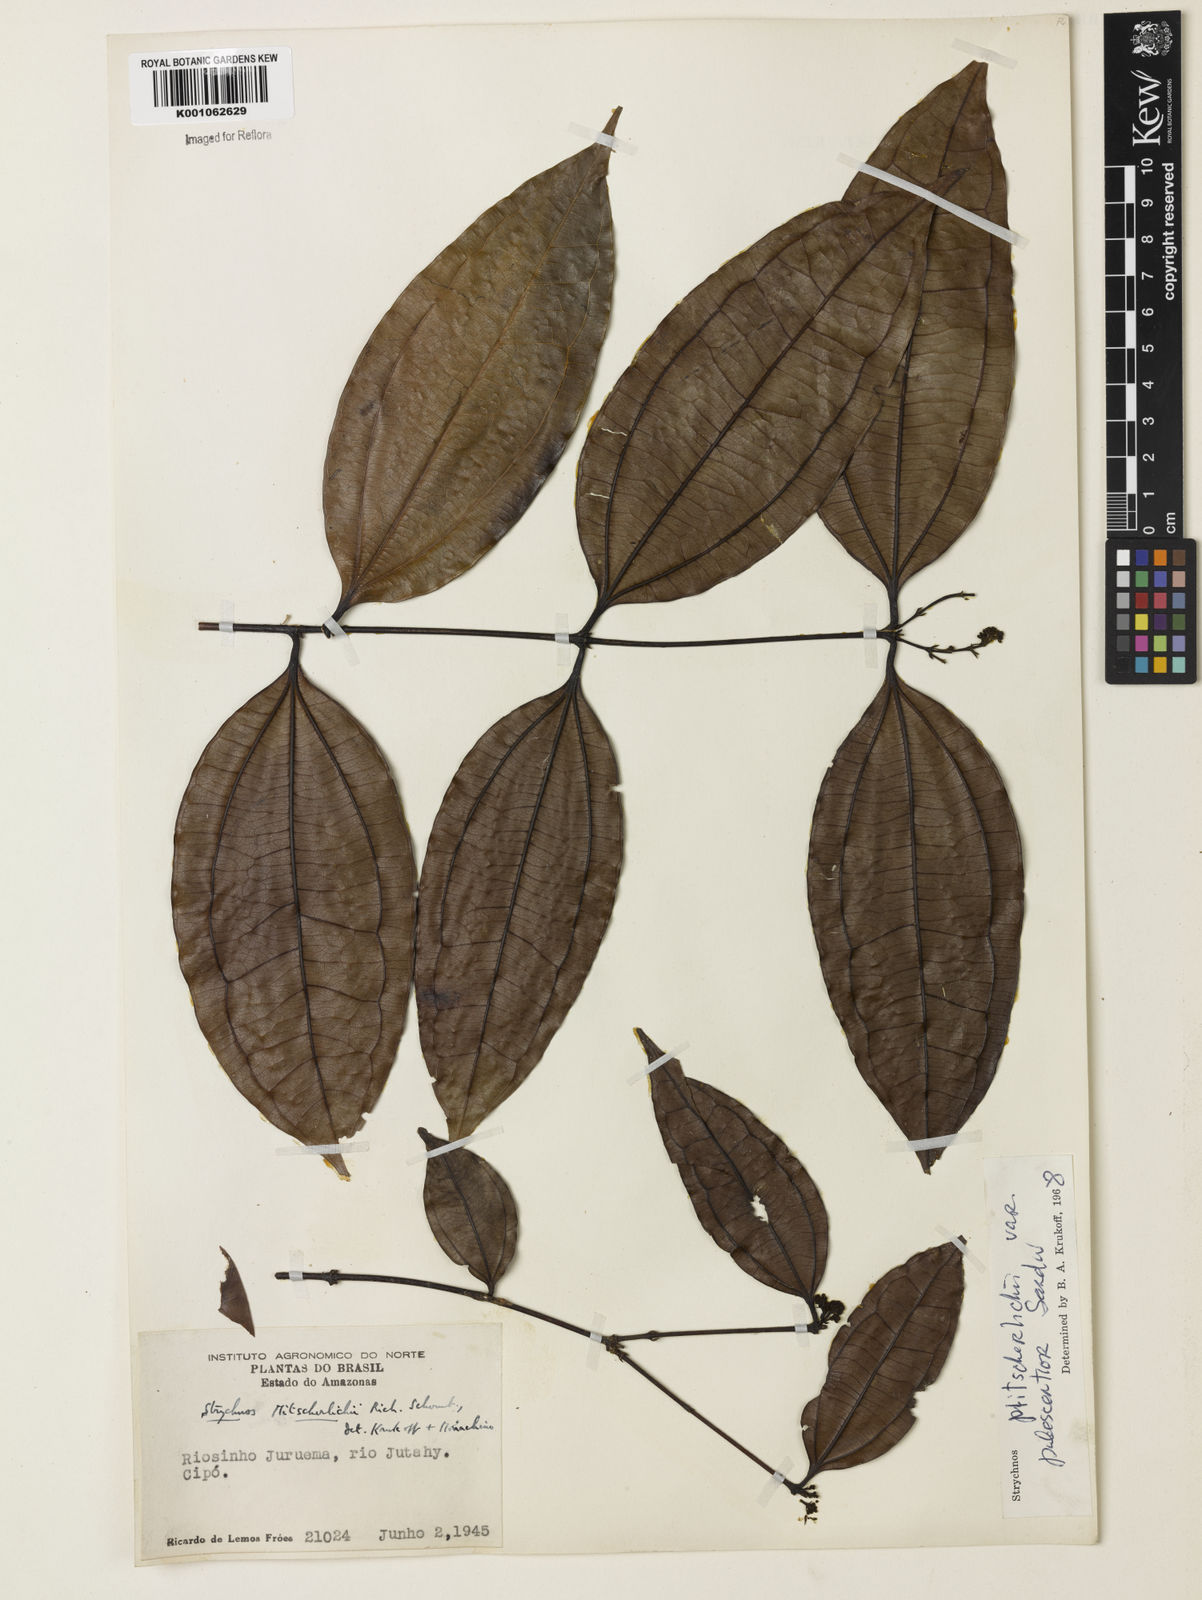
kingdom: Plantae
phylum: Tracheophyta
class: Magnoliopsida
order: Gentianales
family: Loganiaceae
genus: Strychnos
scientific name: Strychnos mitscherlichii
